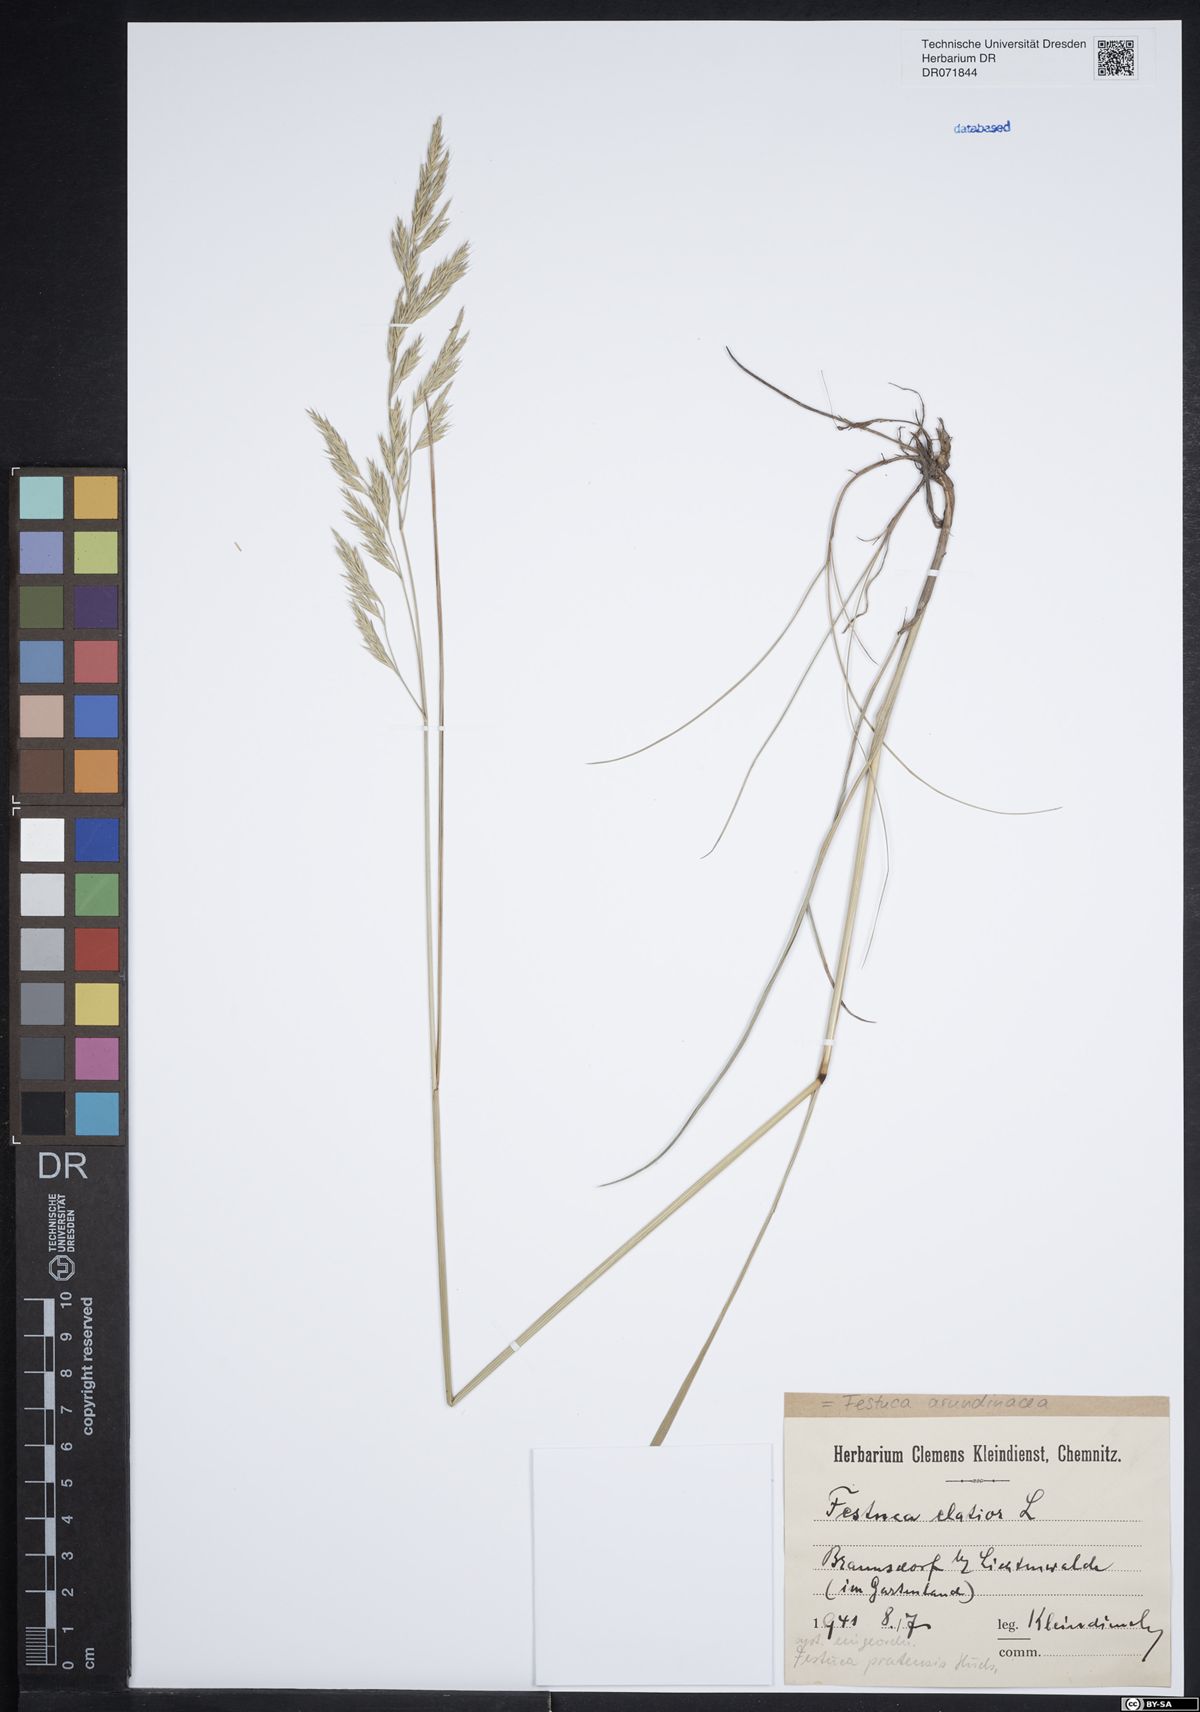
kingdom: Plantae
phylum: Tracheophyta
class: Liliopsida
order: Poales
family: Poaceae
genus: Lolium
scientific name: Lolium arundinaceum
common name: Reed fescue
